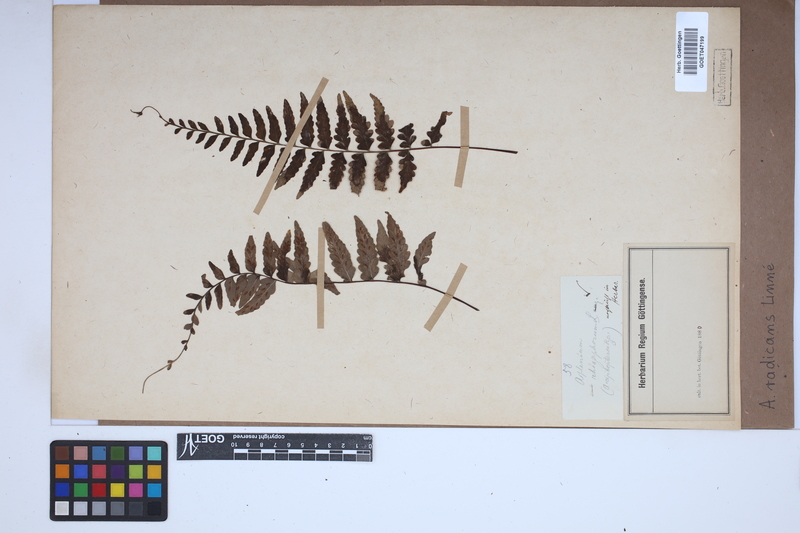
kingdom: Plantae
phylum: Tracheophyta
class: Polypodiopsida
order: Polypodiales
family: Aspleniaceae
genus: Asplenium
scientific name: Asplenium radicans
